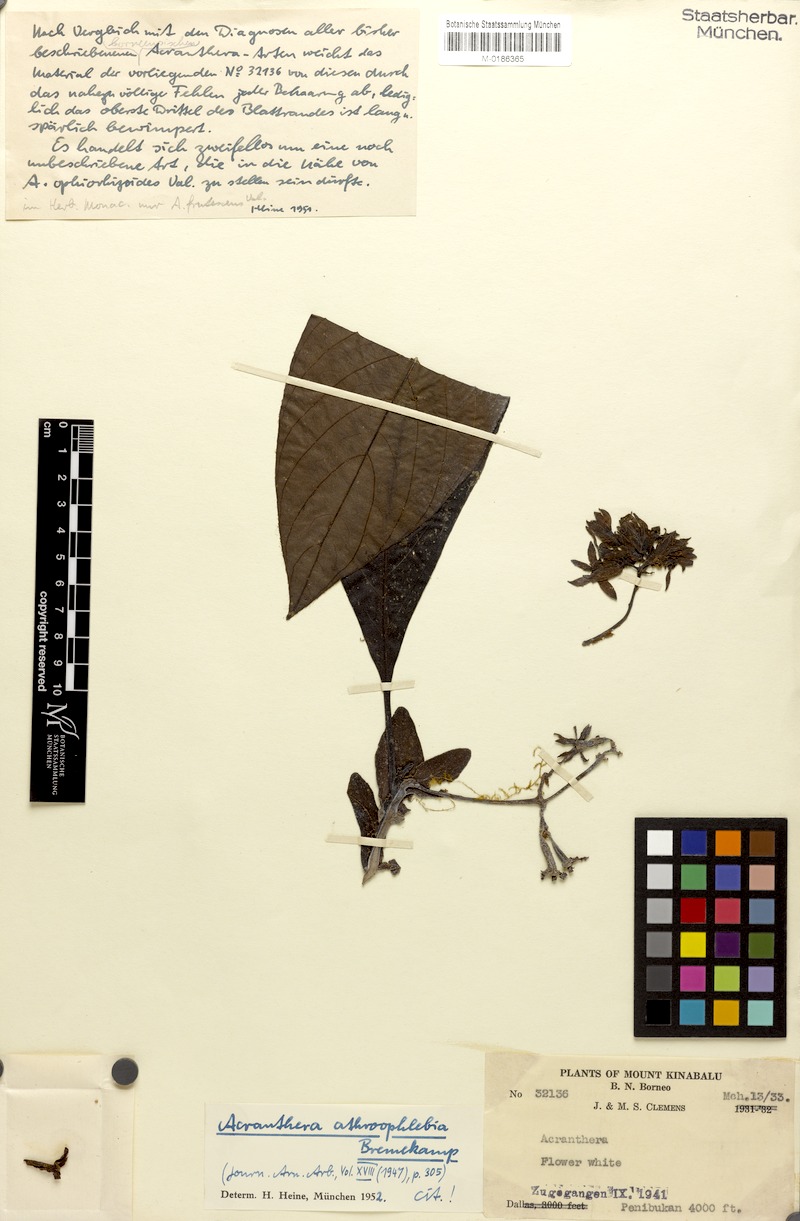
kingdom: Plantae
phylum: Tracheophyta
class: Magnoliopsida
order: Gentianales
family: Rubiaceae
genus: Acranthera
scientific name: Acranthera athroophlebia
